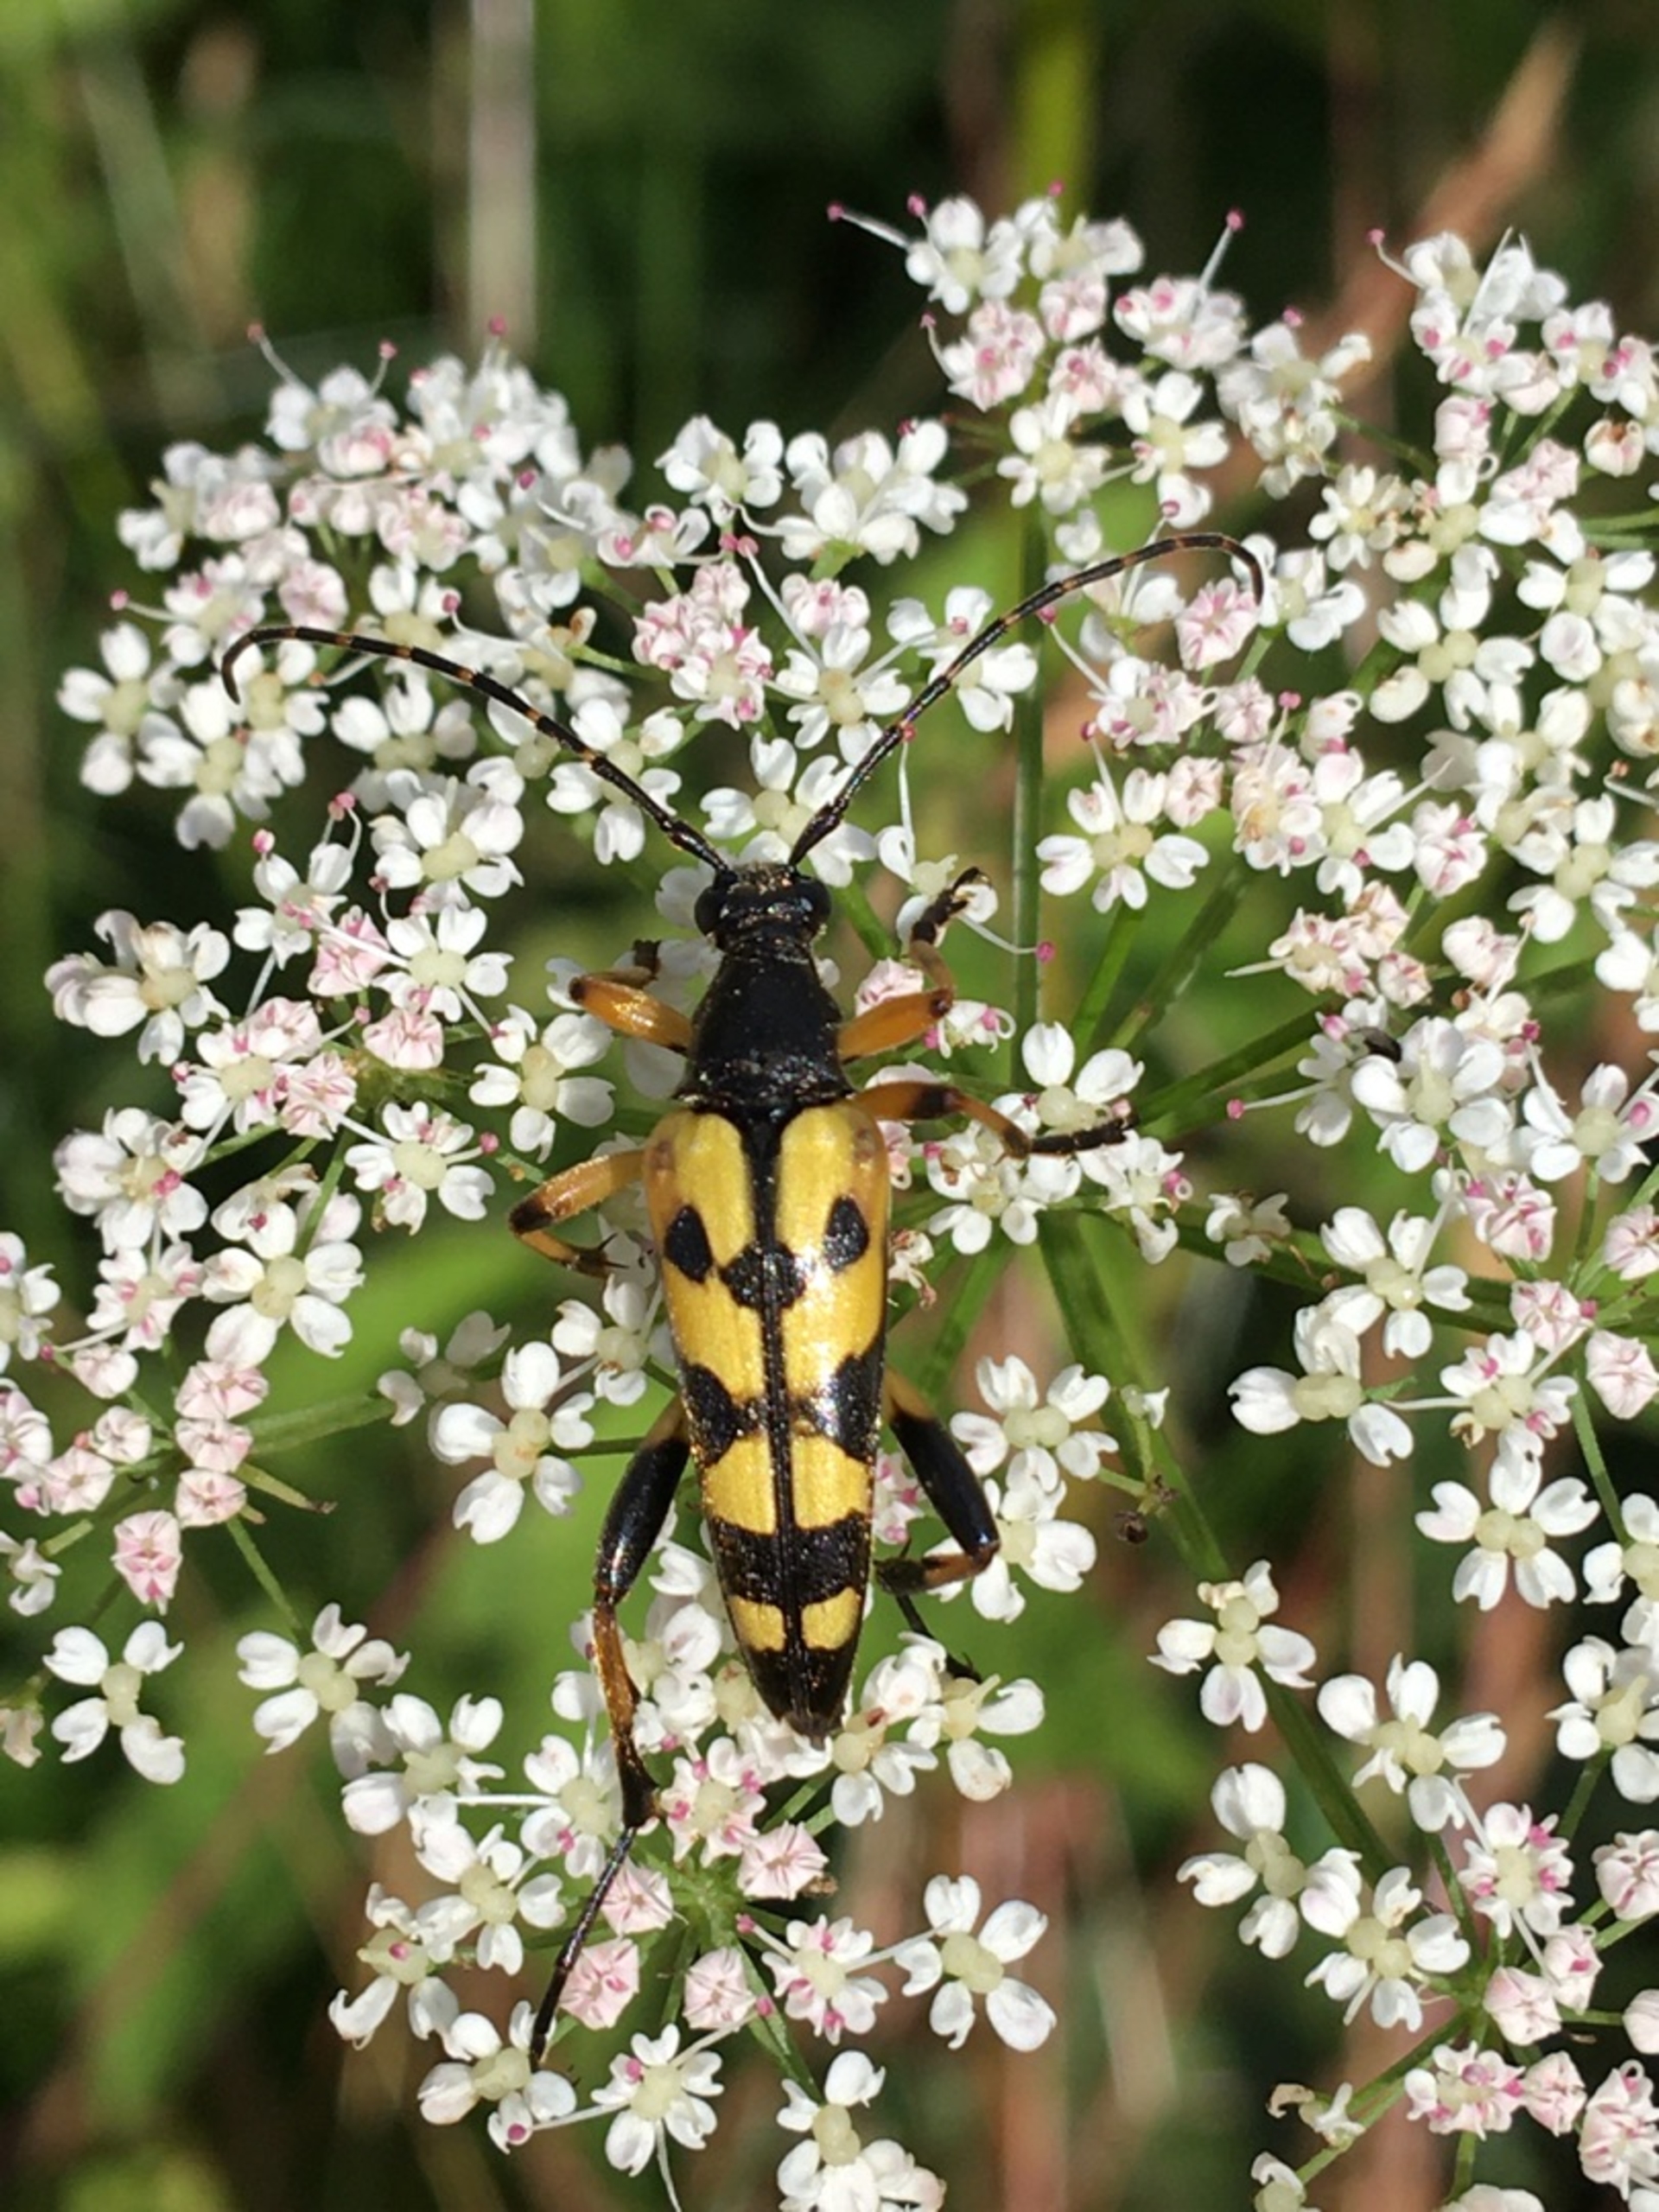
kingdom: Animalia
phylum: Arthropoda
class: Insecta
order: Coleoptera
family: Cerambycidae
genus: Rutpela
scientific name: Rutpela maculata
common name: Sydlig blomsterbuk
